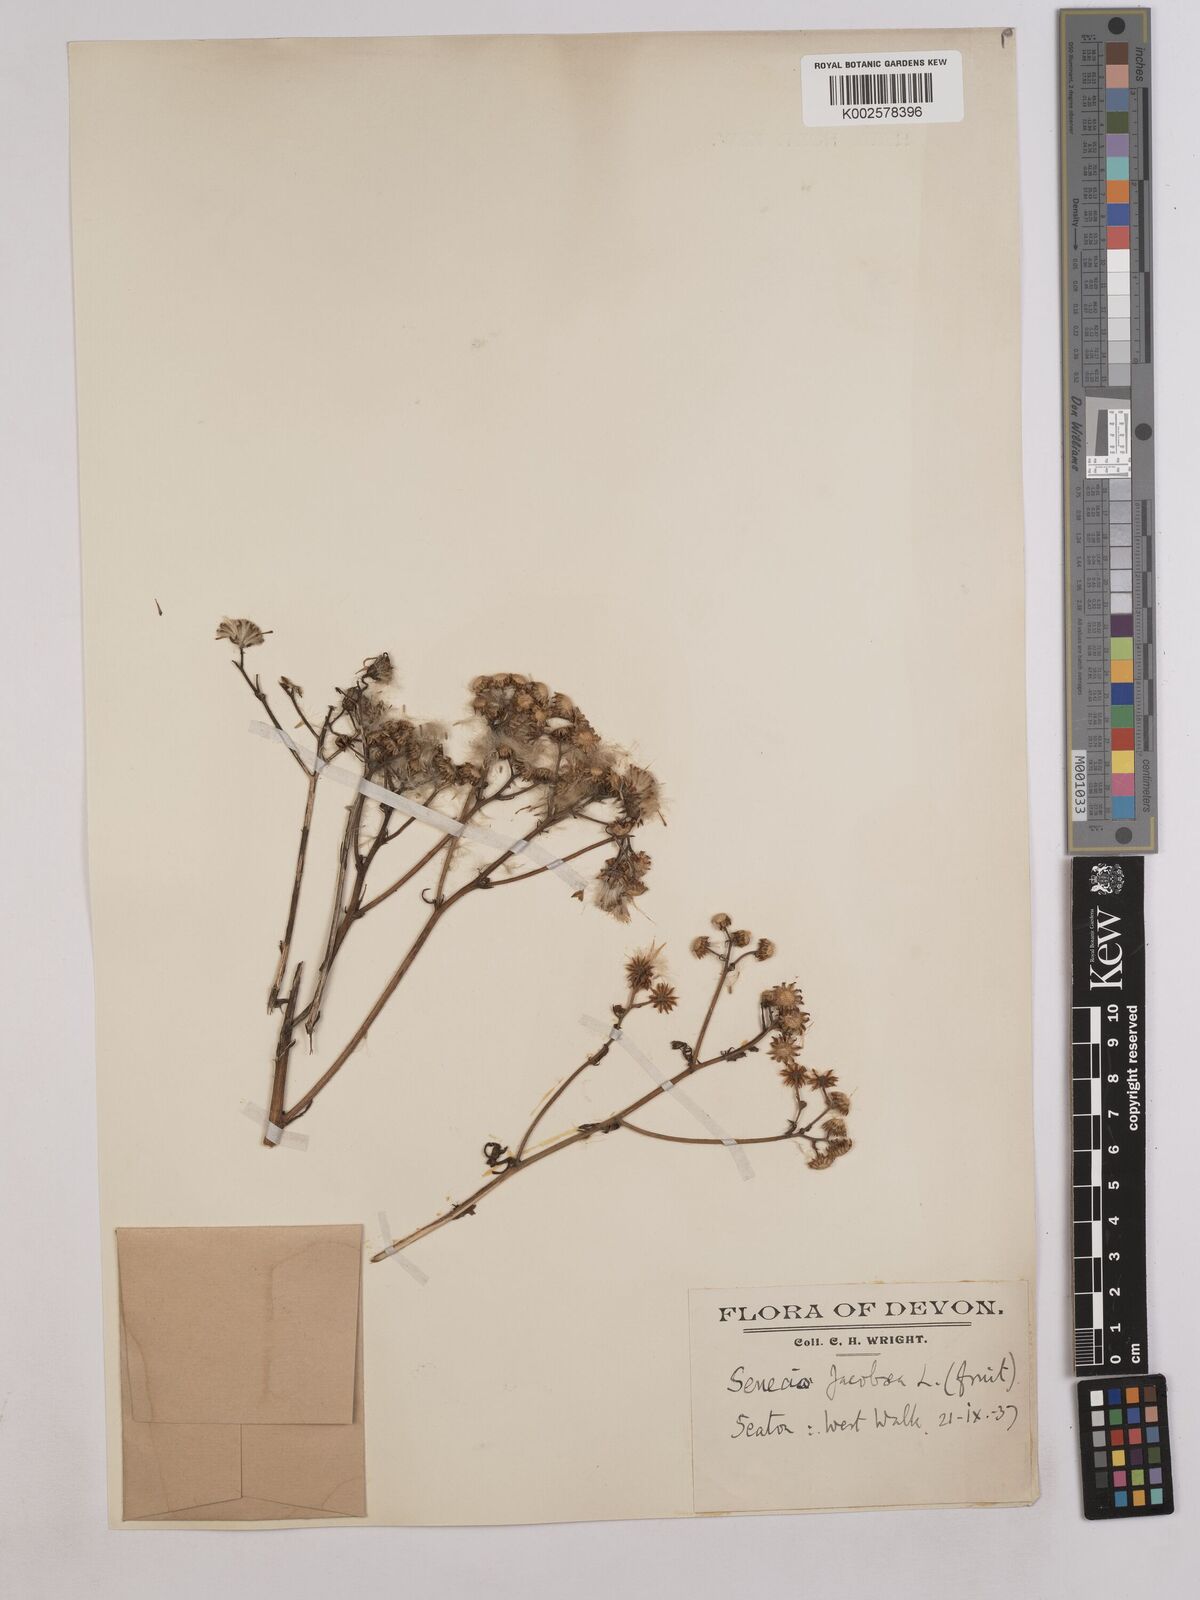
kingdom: Plantae
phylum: Tracheophyta
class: Magnoliopsida
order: Asterales
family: Asteraceae
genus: Jacobaea
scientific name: Jacobaea vulgaris
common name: Stinking willie
